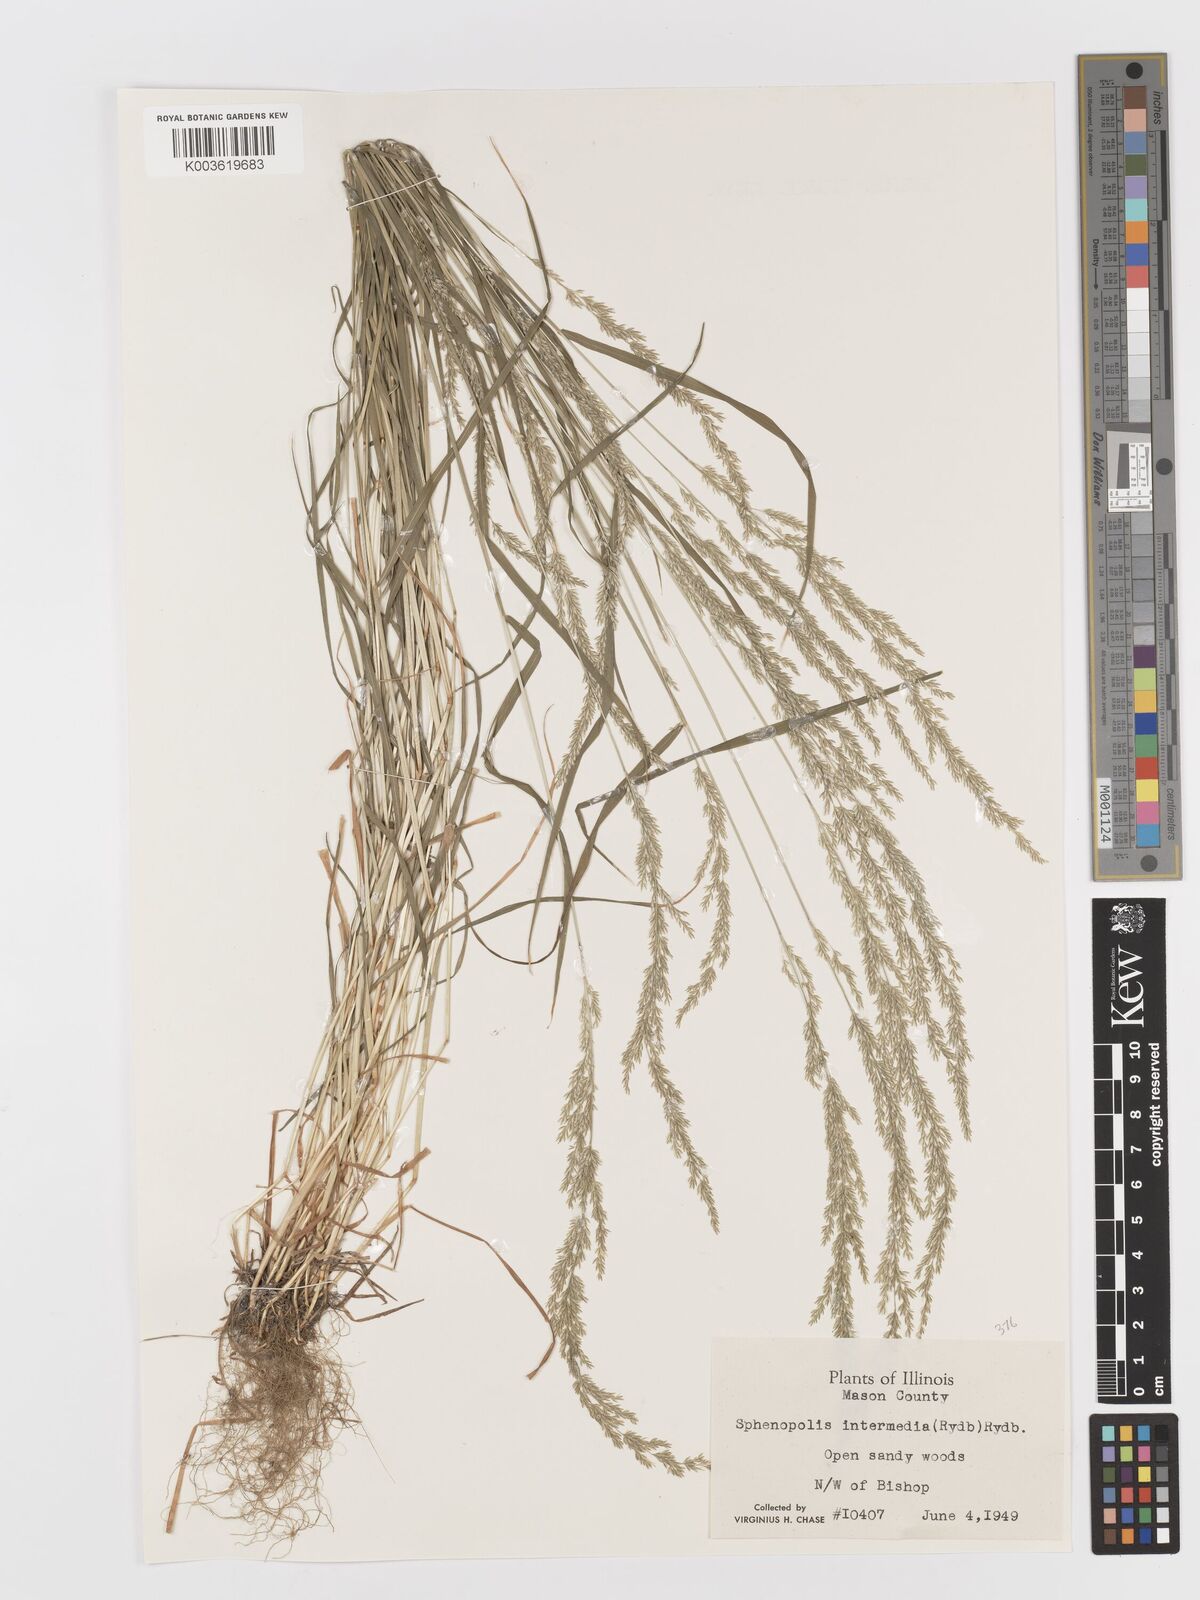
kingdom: Plantae
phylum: Tracheophyta
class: Liliopsida
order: Poales
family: Poaceae
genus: Sphenopholis
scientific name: Sphenopholis obtusata
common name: Prairie grass
